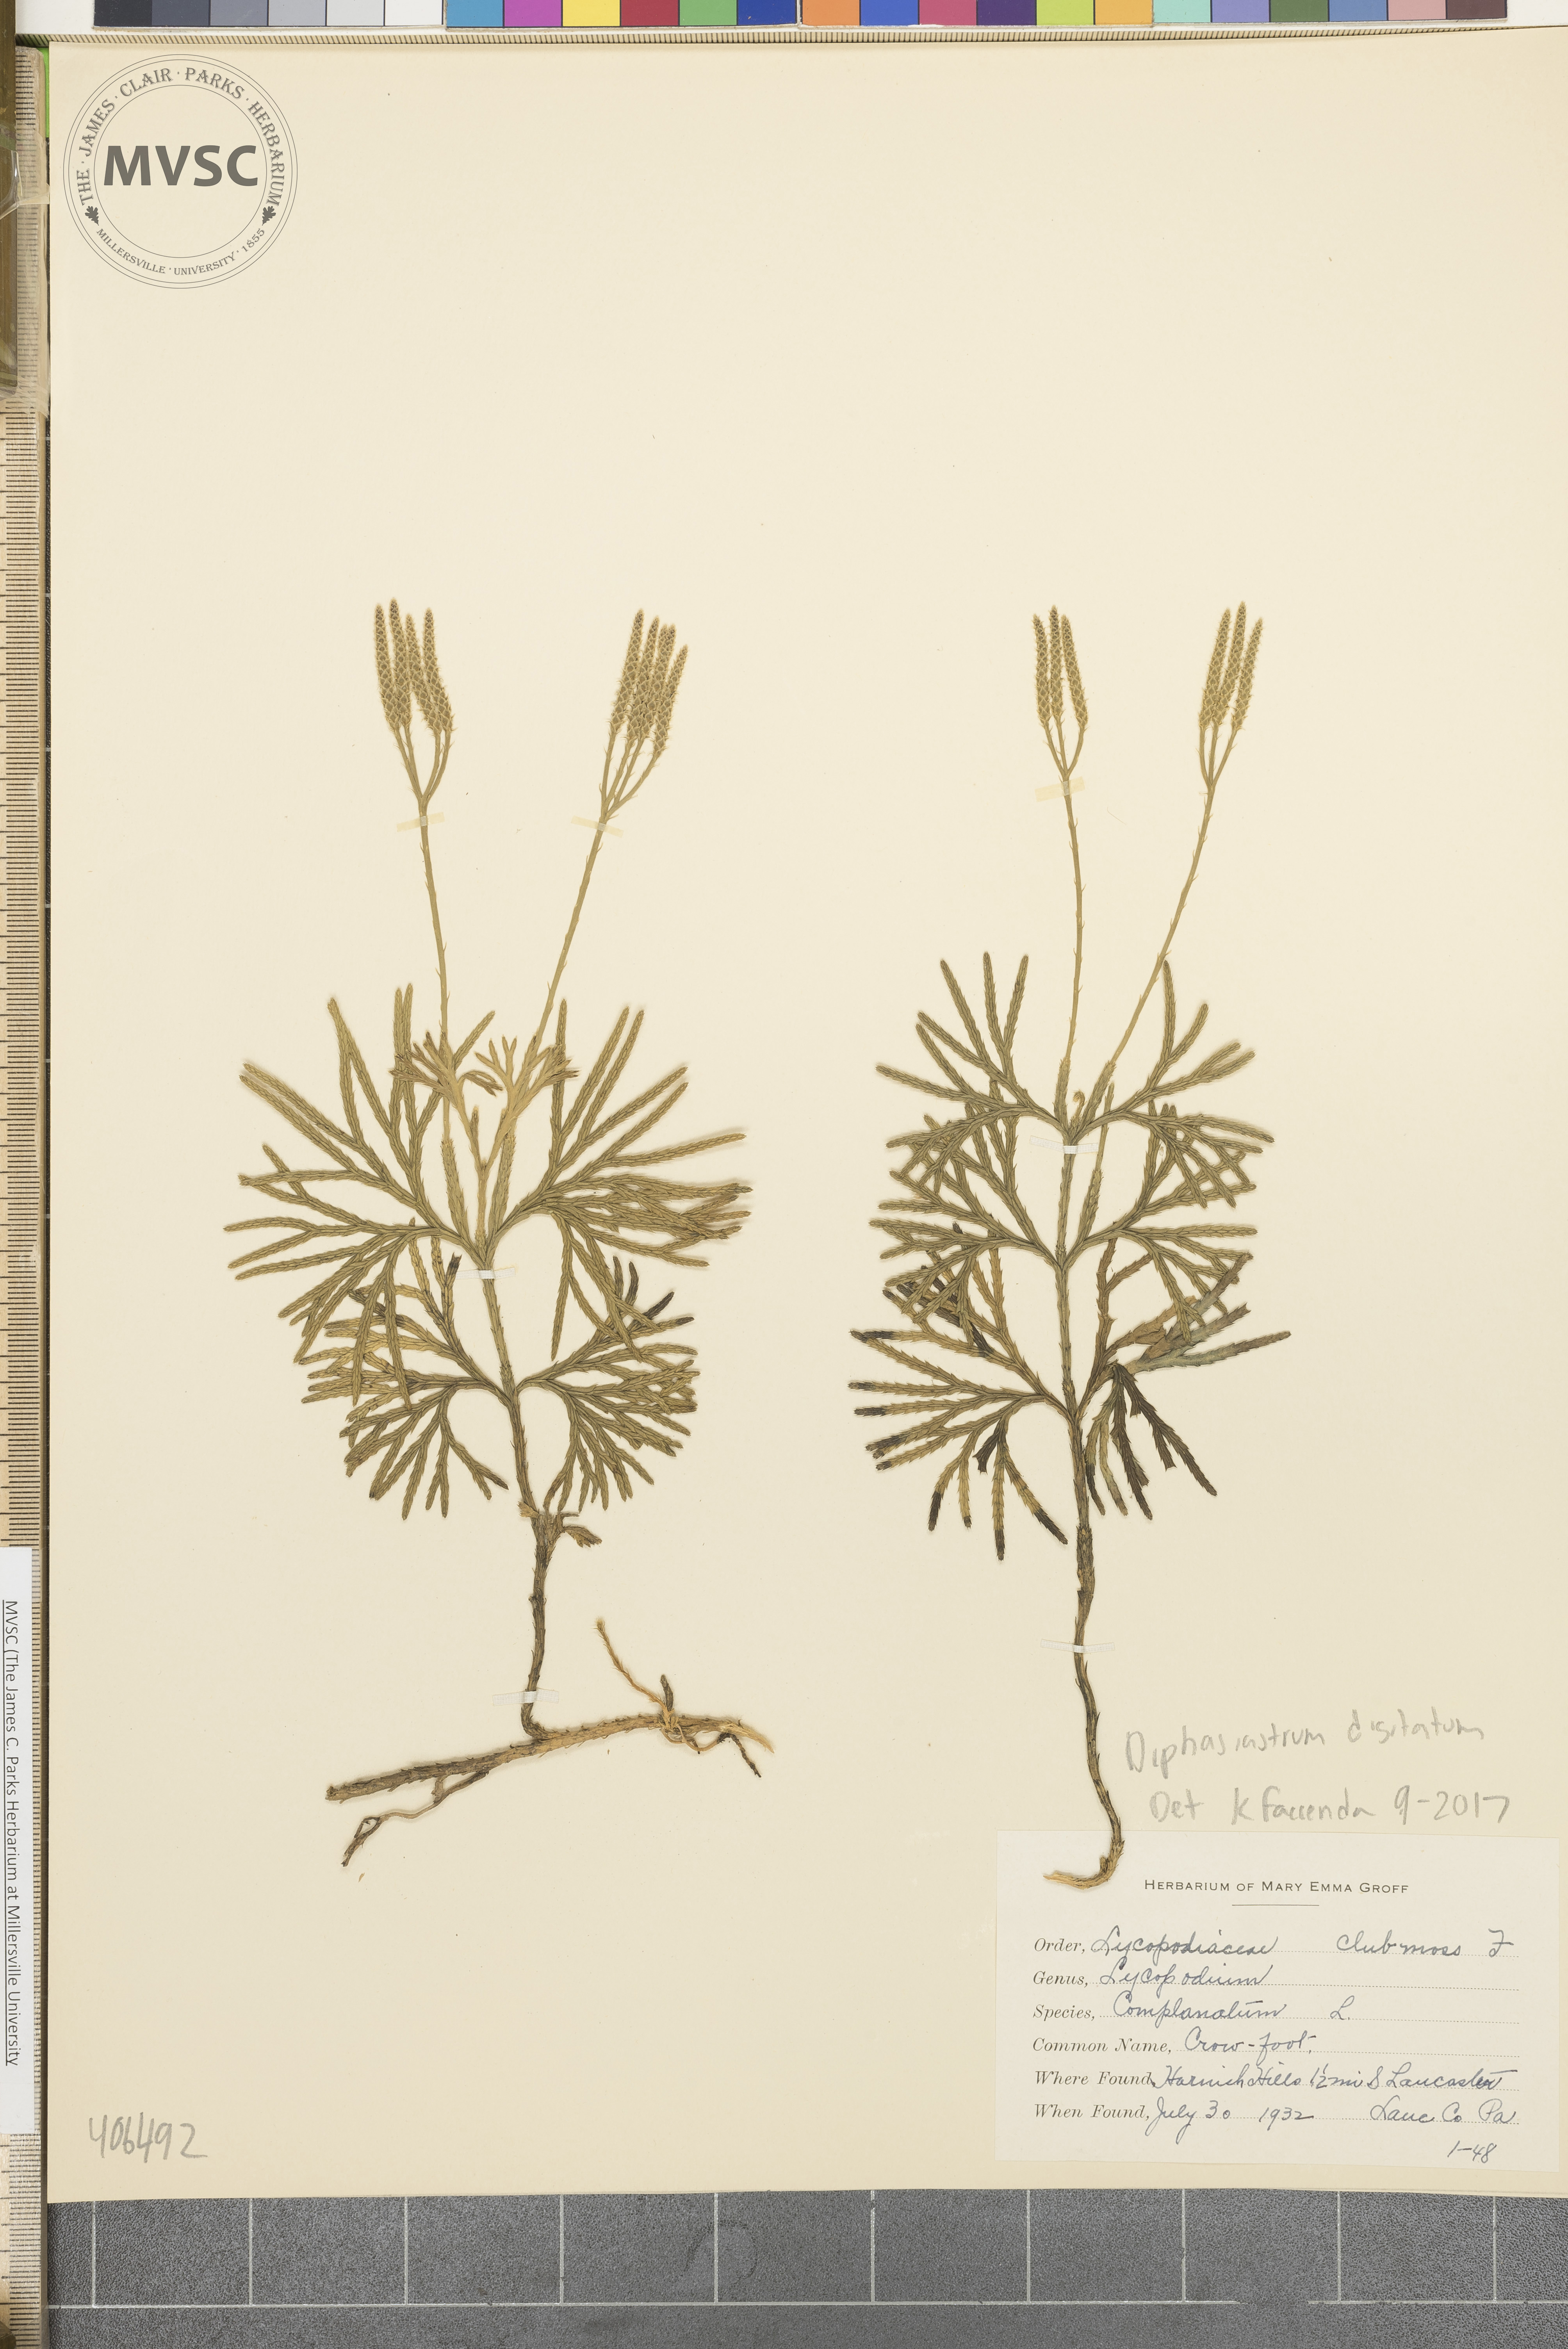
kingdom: Plantae
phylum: Tracheophyta
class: Lycopodiopsida
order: Lycopodiales
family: Lycopodiaceae
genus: Diphasiastrum
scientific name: Diphasiastrum digitatum
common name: Southern running-pine
